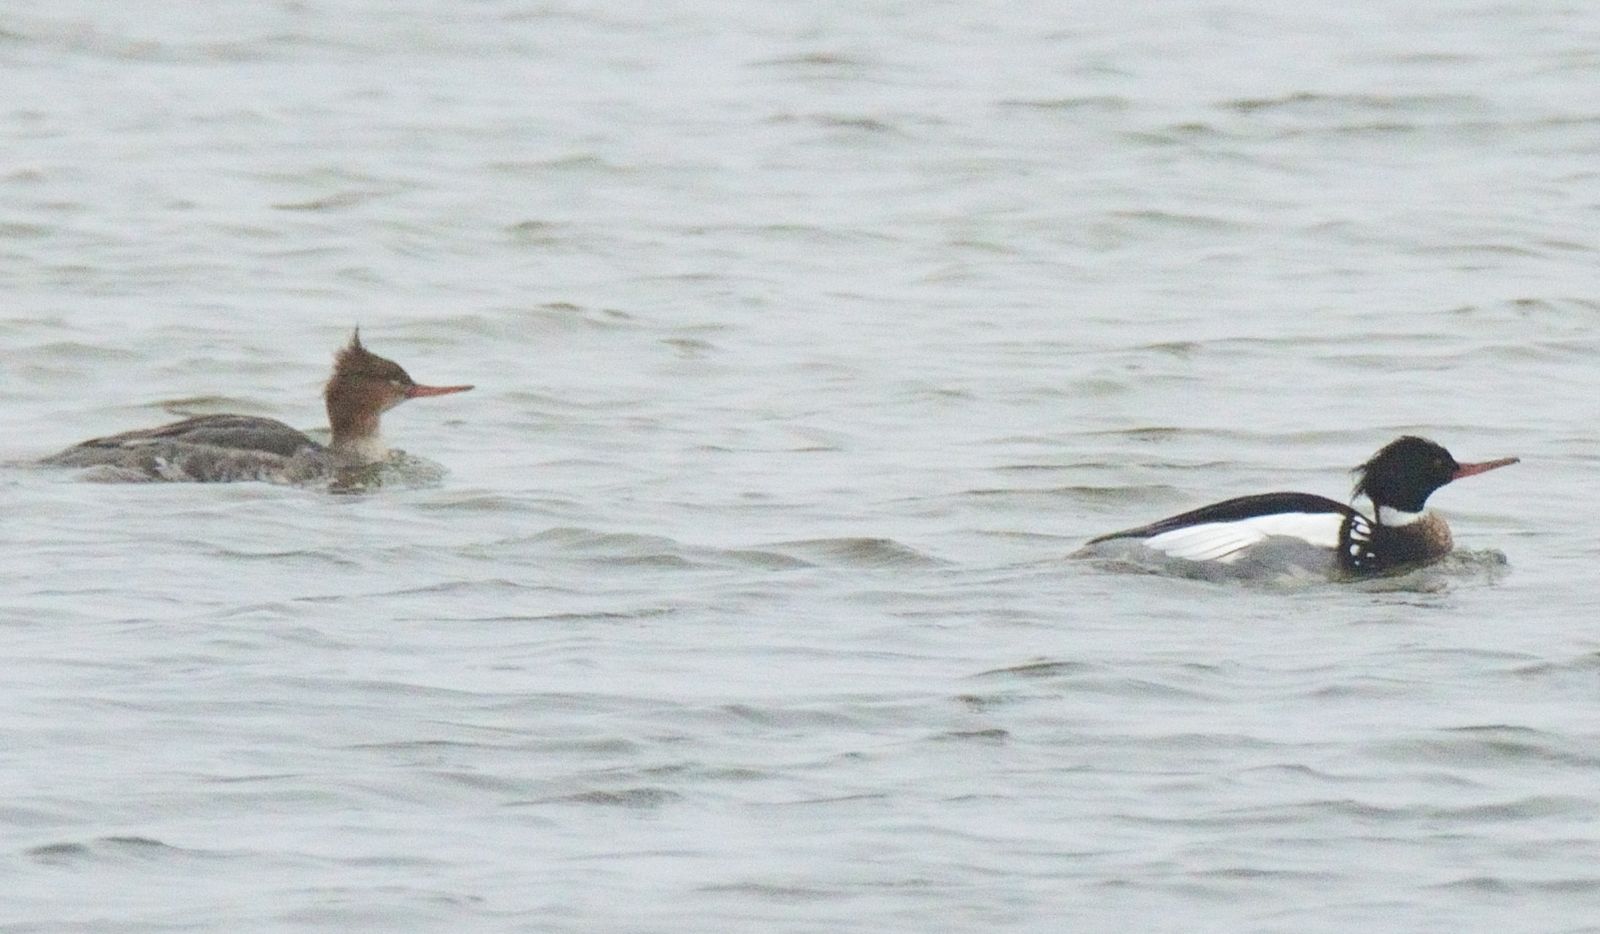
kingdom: Animalia
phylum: Chordata
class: Aves
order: Anseriformes
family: Anatidae
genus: Mergus
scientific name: Mergus serrator
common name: Red-breasted merganser
